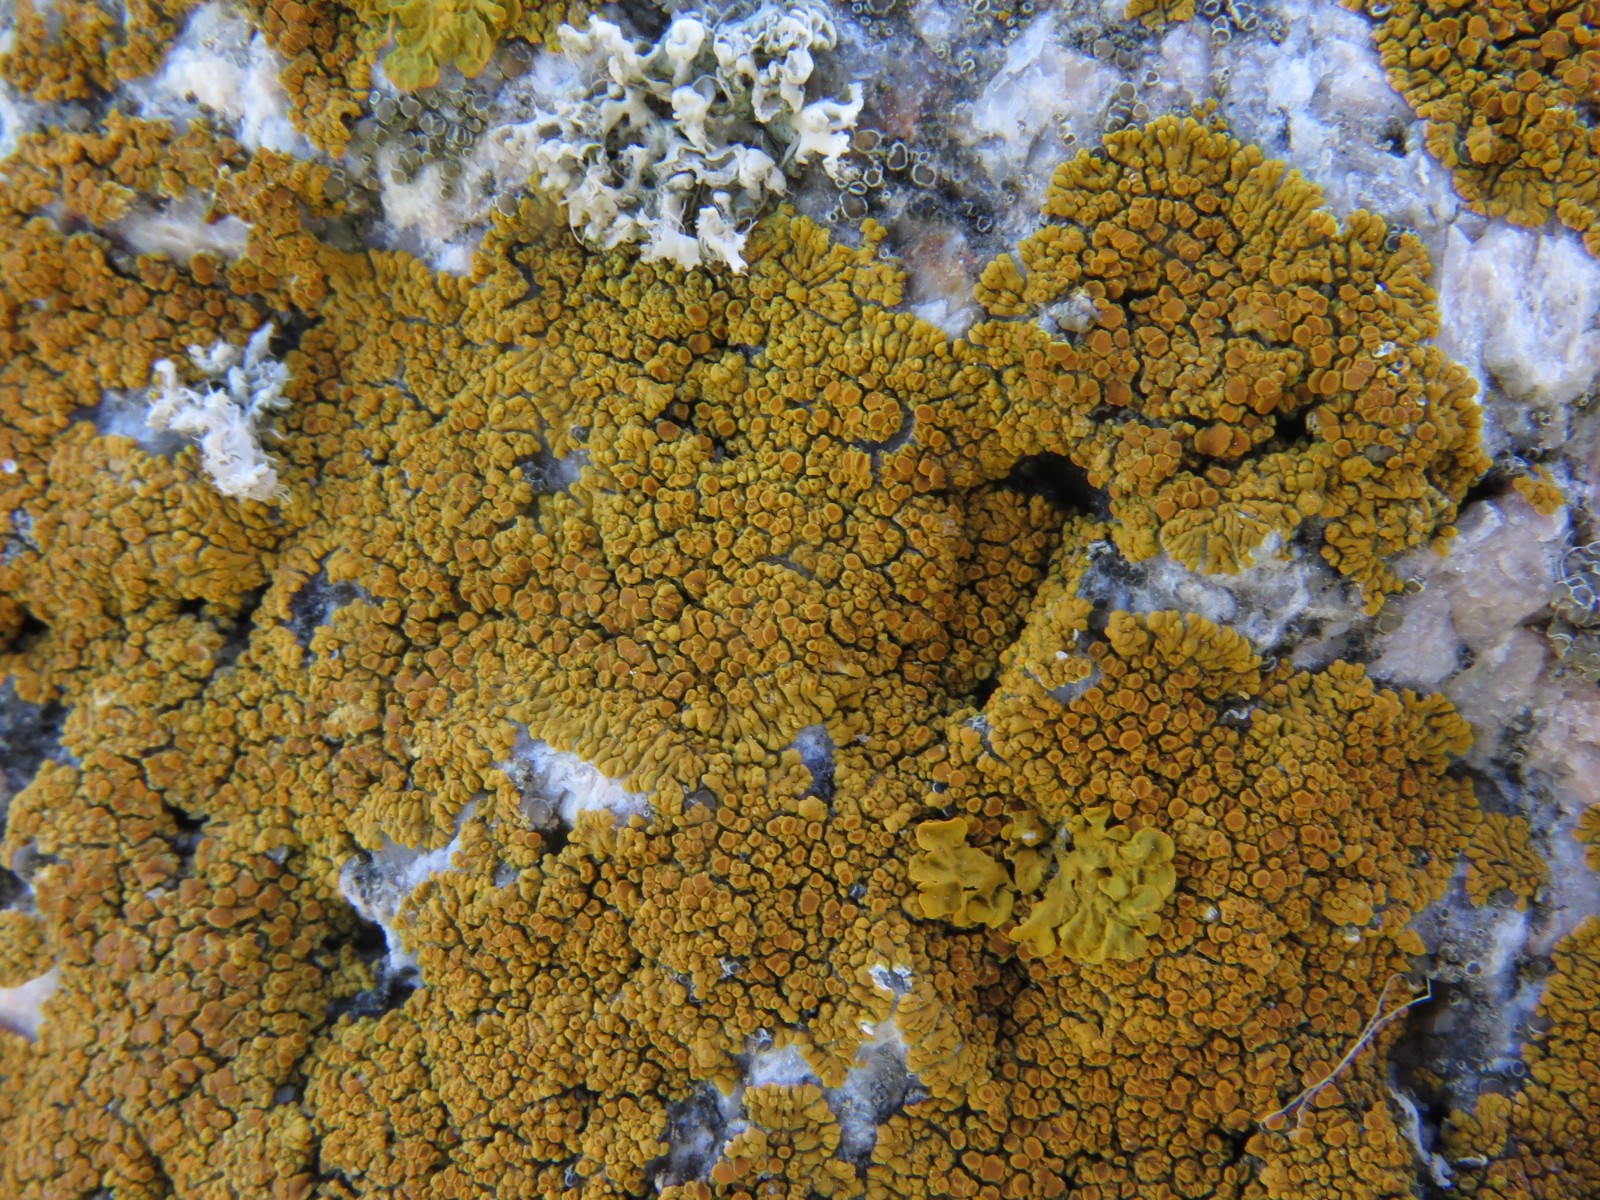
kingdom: Fungi
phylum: Ascomycota
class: Lecanoromycetes
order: Teloschistales
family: Teloschistaceae
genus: Athallia
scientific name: Athallia scopularis
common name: klippe-orangelav
